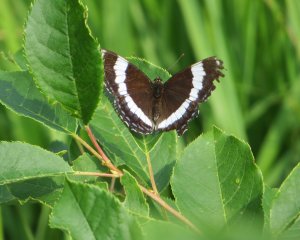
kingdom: Animalia
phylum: Arthropoda
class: Insecta
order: Lepidoptera
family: Nymphalidae
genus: Limenitis
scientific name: Limenitis arthemis
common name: Red-spotted Admiral
